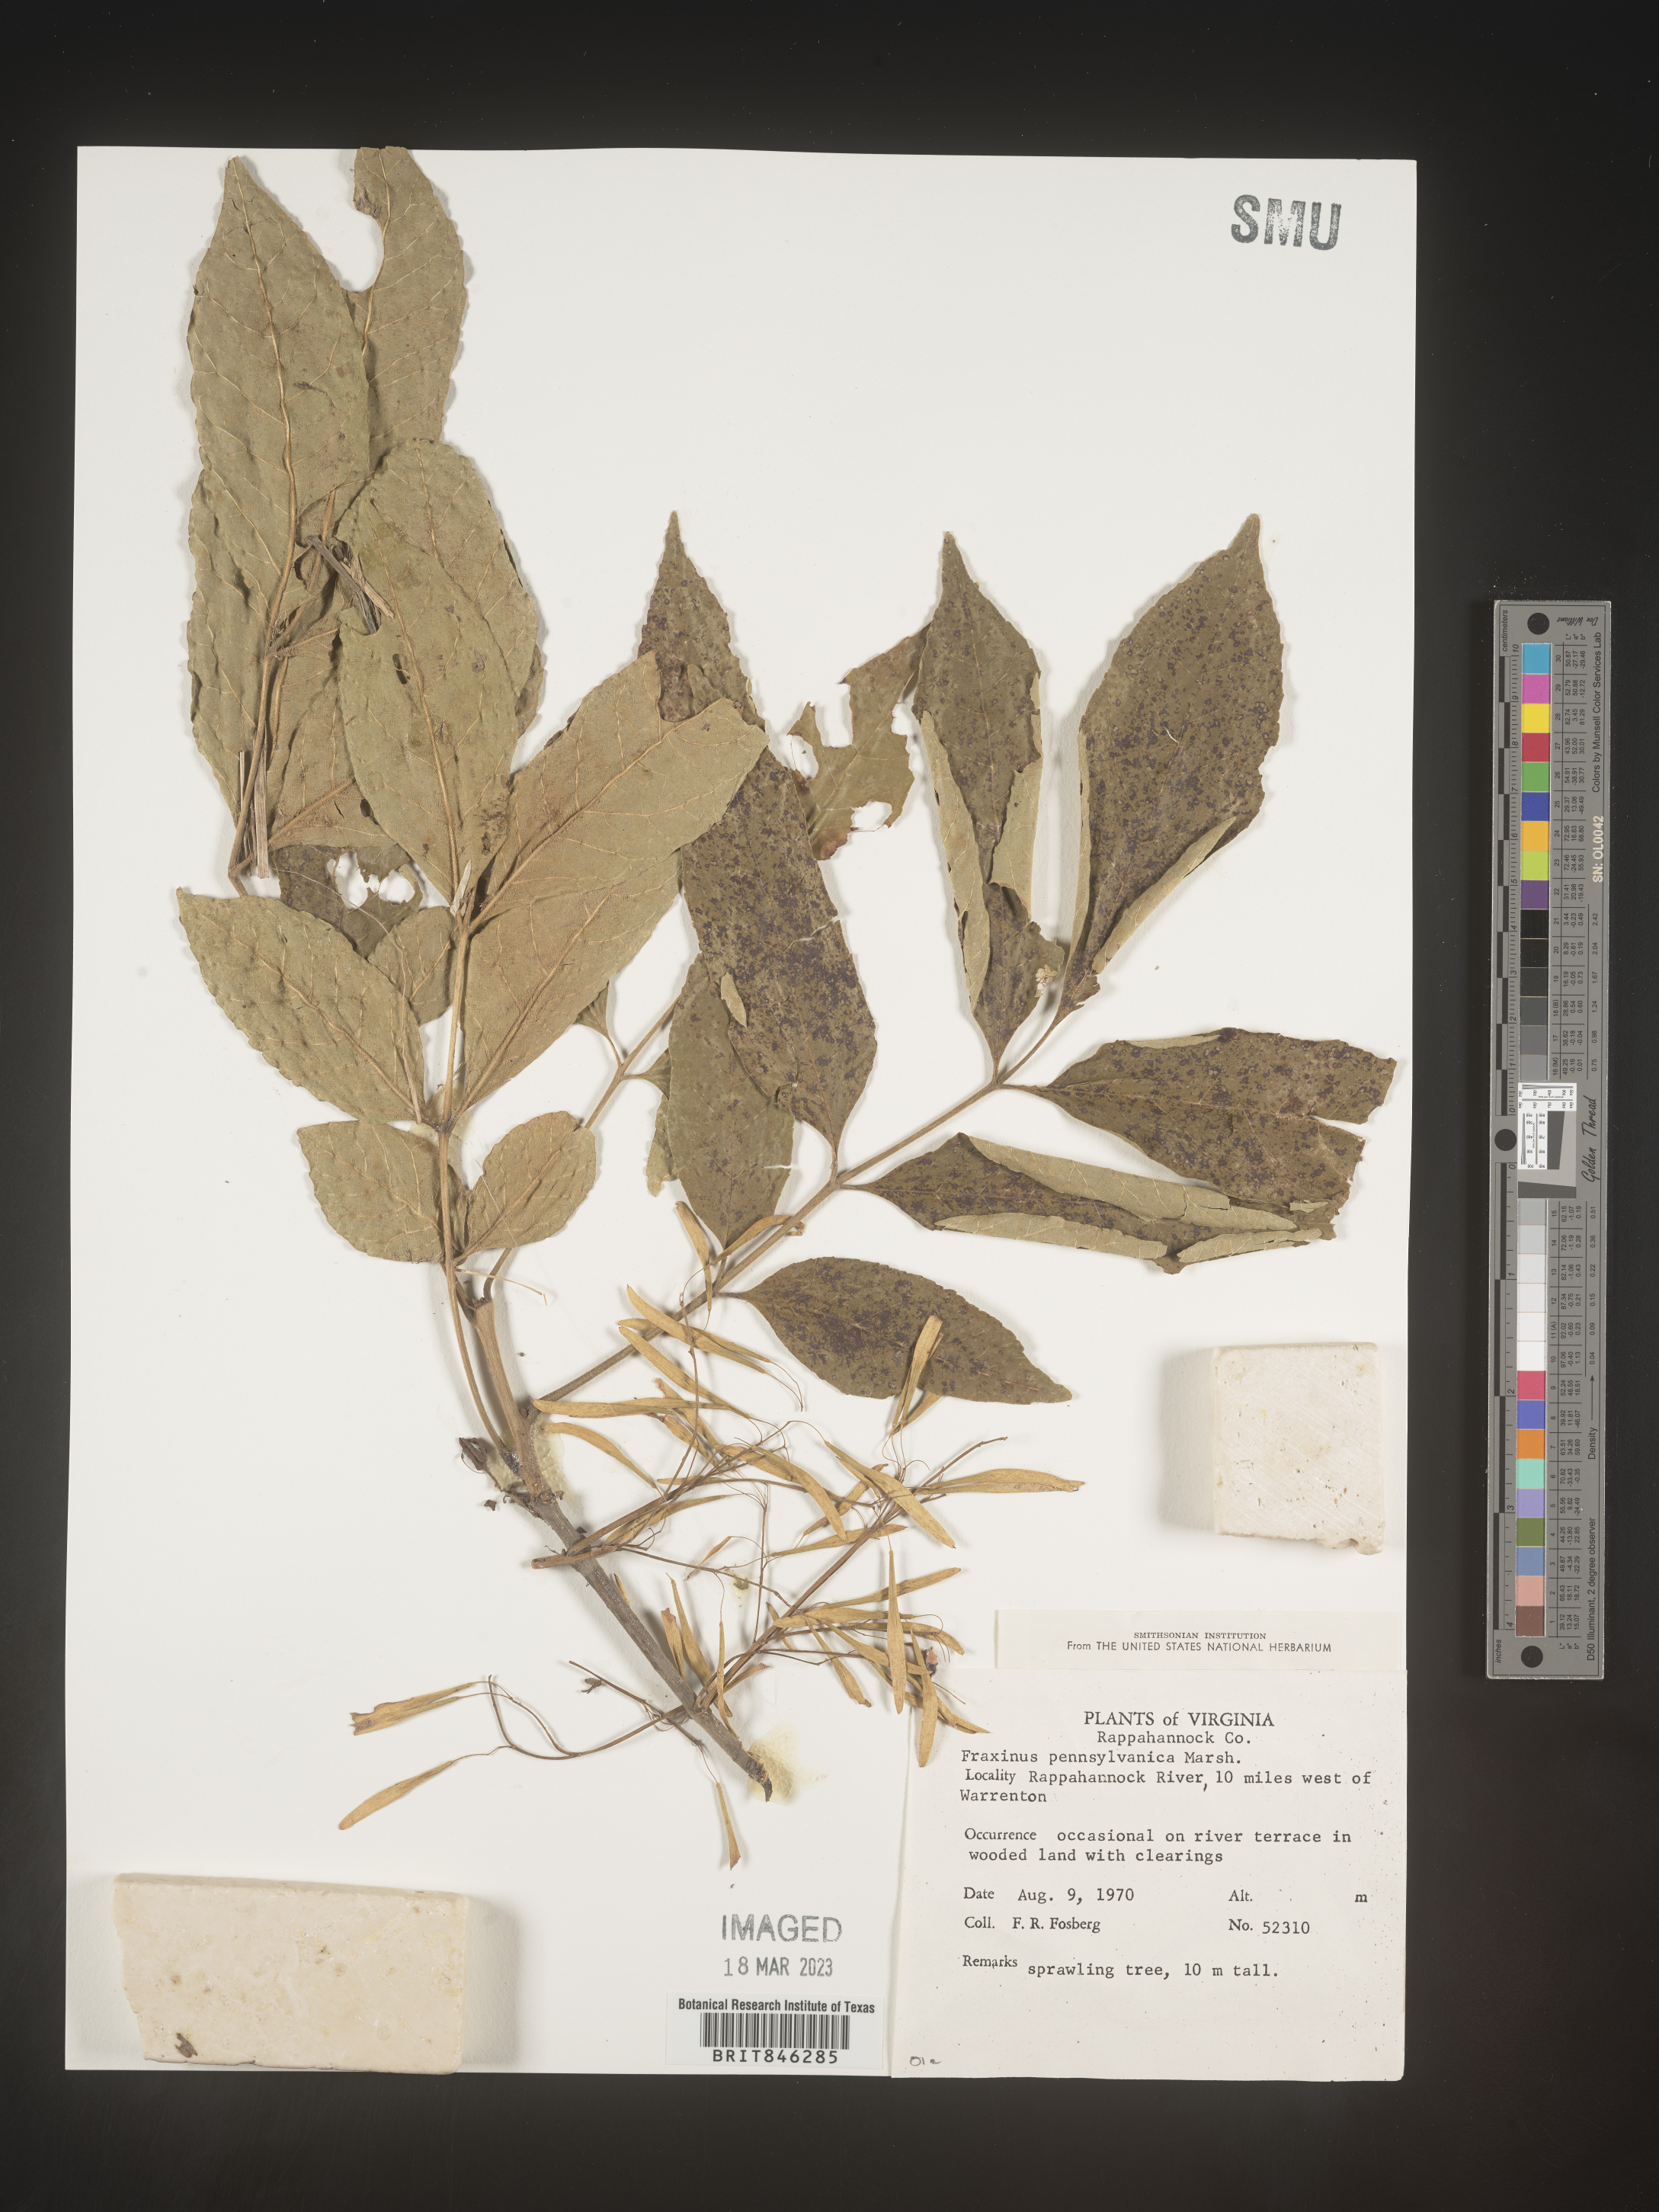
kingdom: Plantae
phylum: Tracheophyta
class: Magnoliopsida
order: Lamiales
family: Oleaceae
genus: Fraxinus
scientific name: Fraxinus pennsylvanica
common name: Green ash
